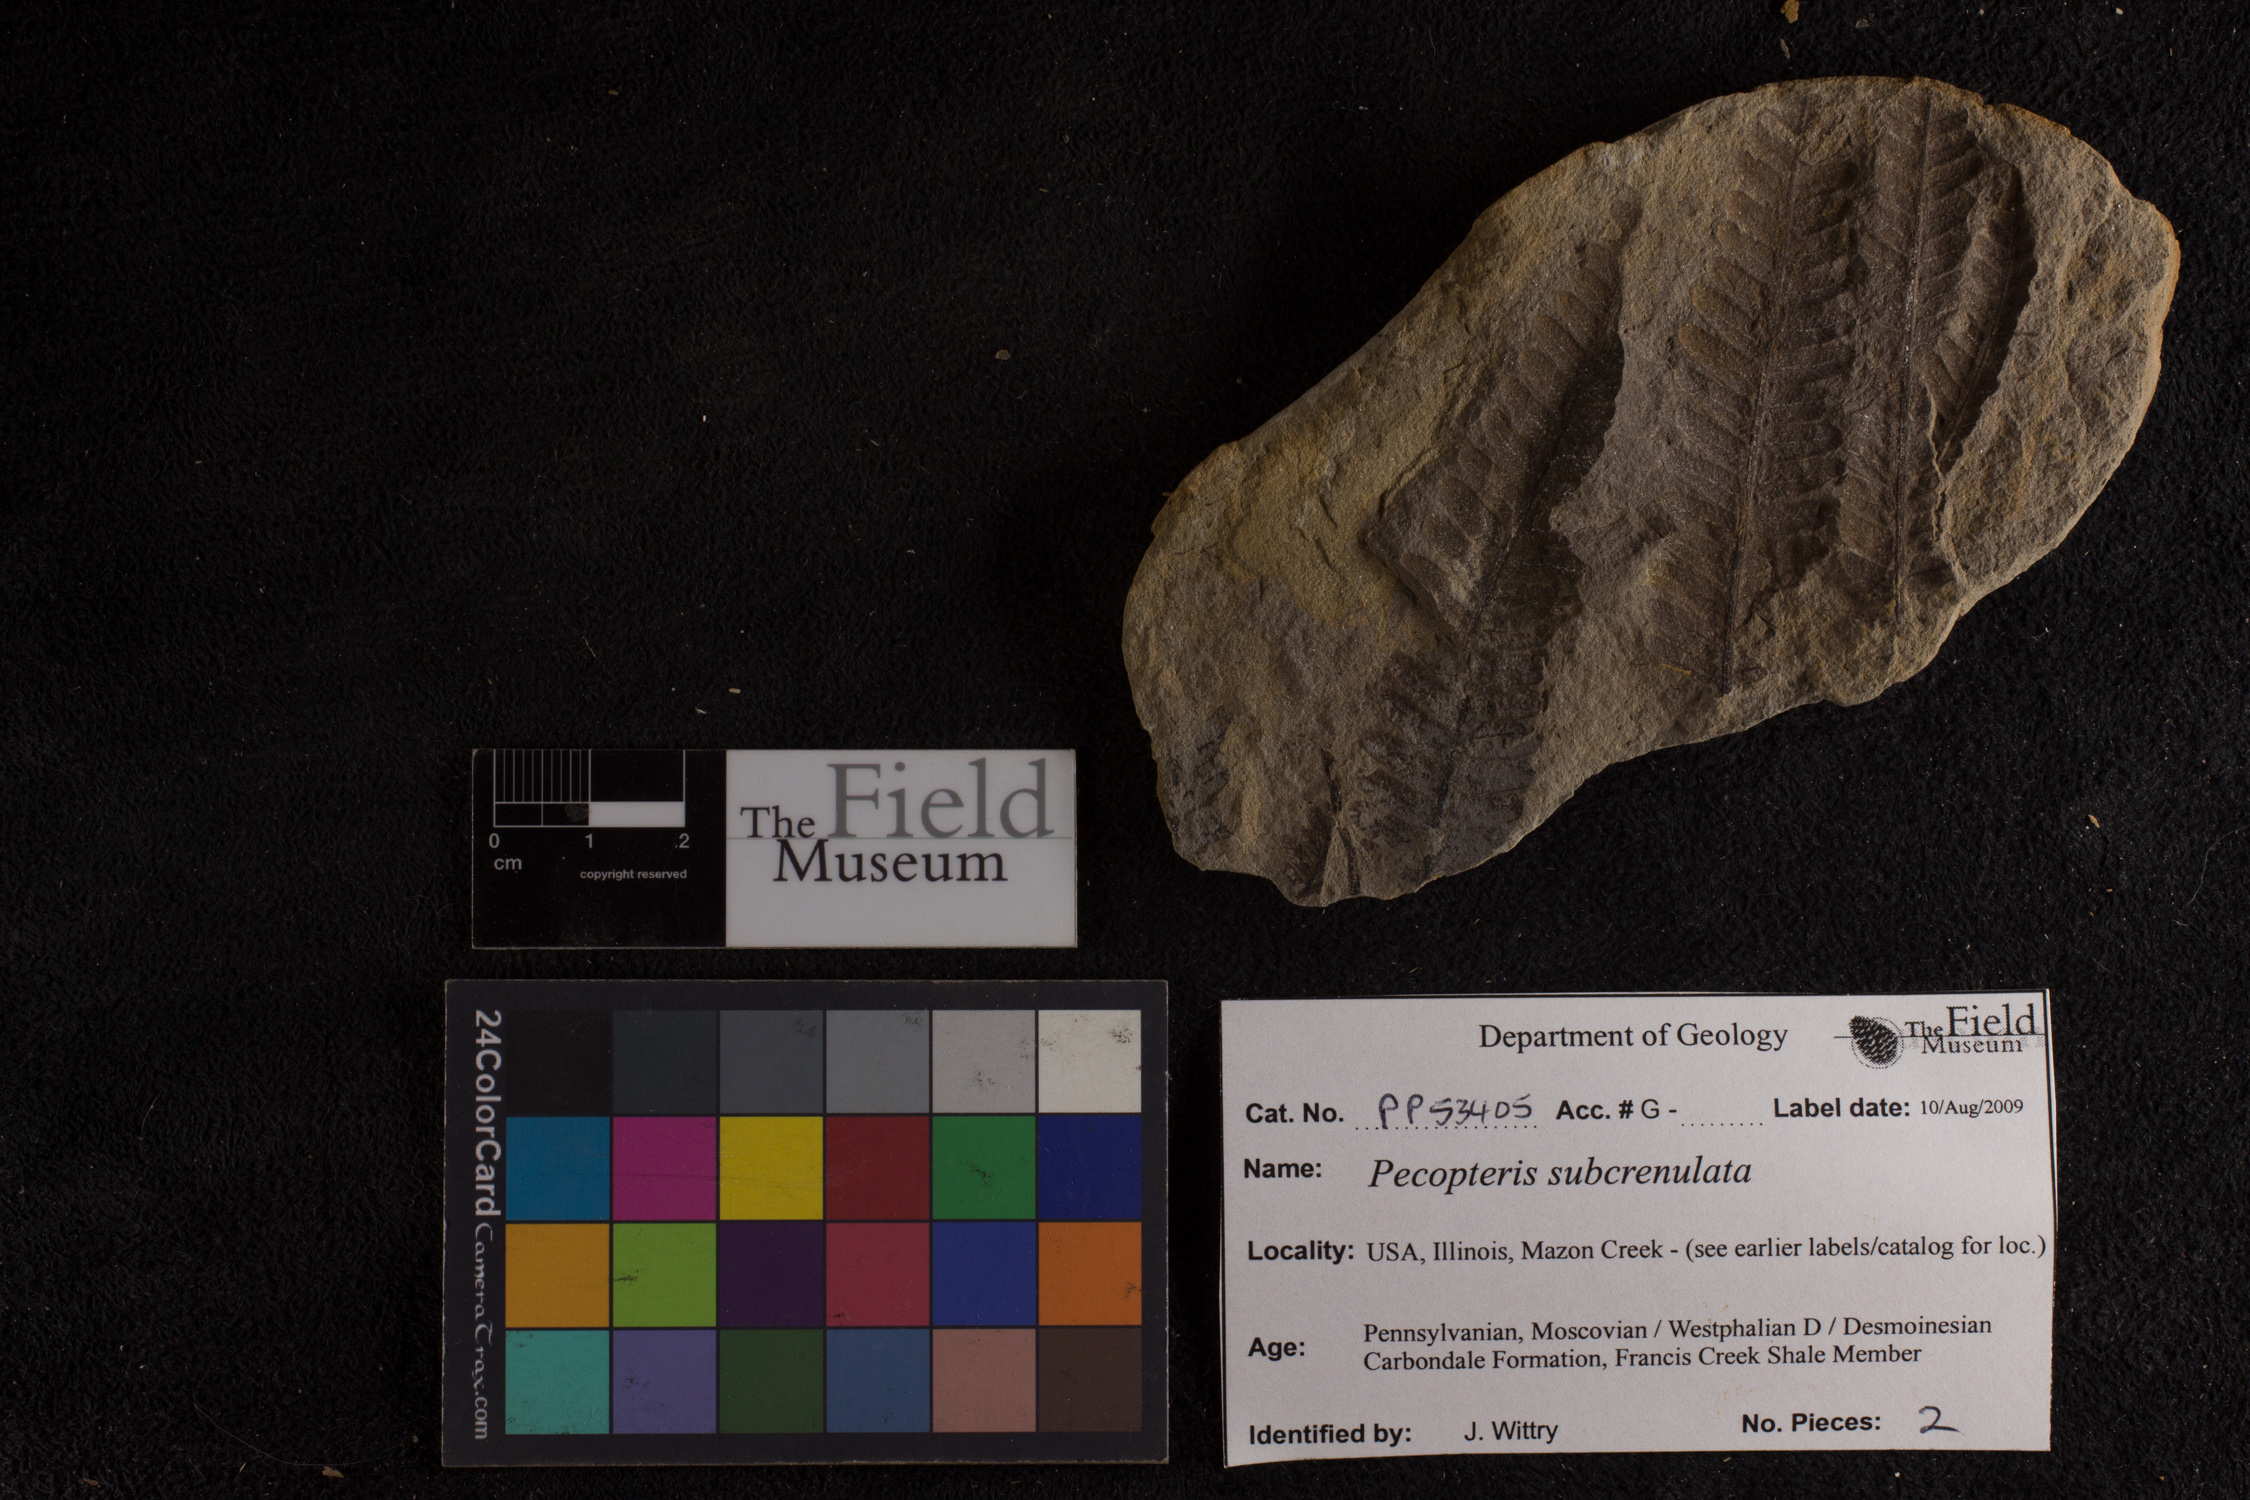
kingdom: Plantae
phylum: Tracheophyta
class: Polypodiopsida
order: Marattiales
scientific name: Marattiales
